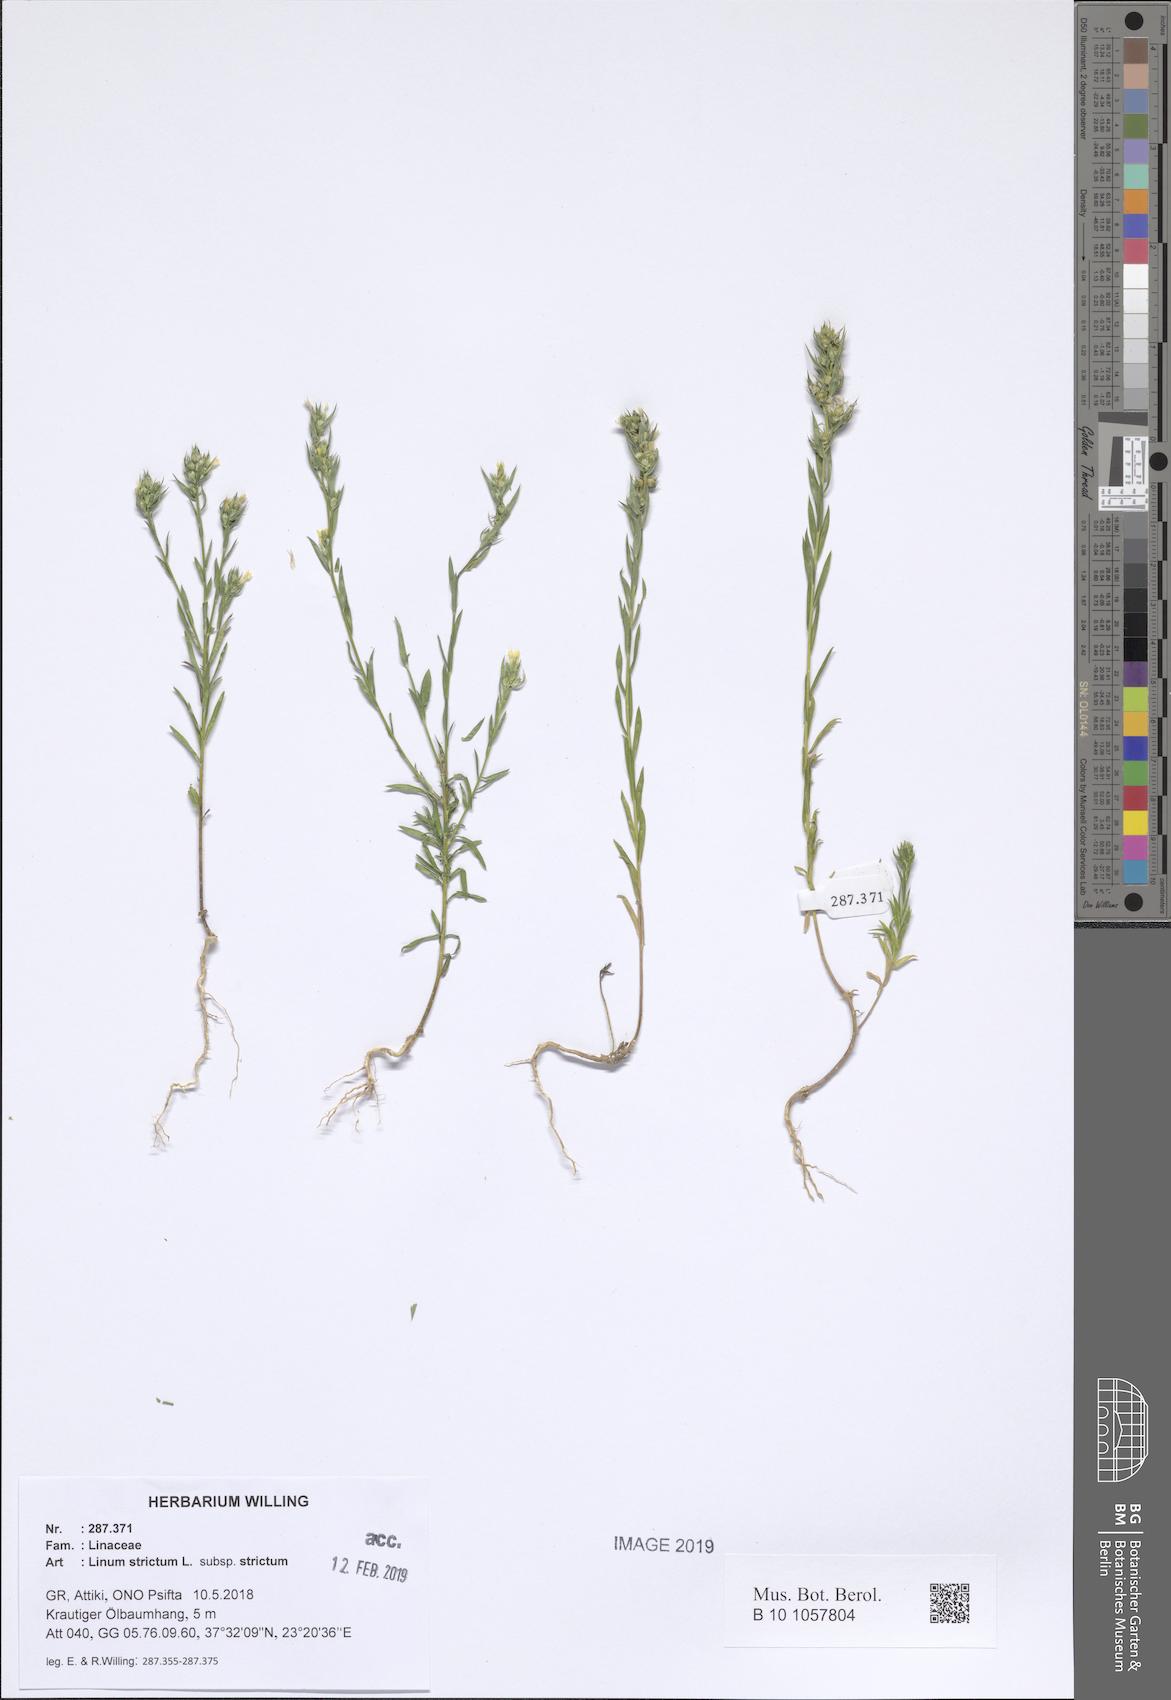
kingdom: Plantae
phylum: Tracheophyta
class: Magnoliopsida
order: Malpighiales
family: Linaceae
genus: Linum
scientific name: Linum strictum
